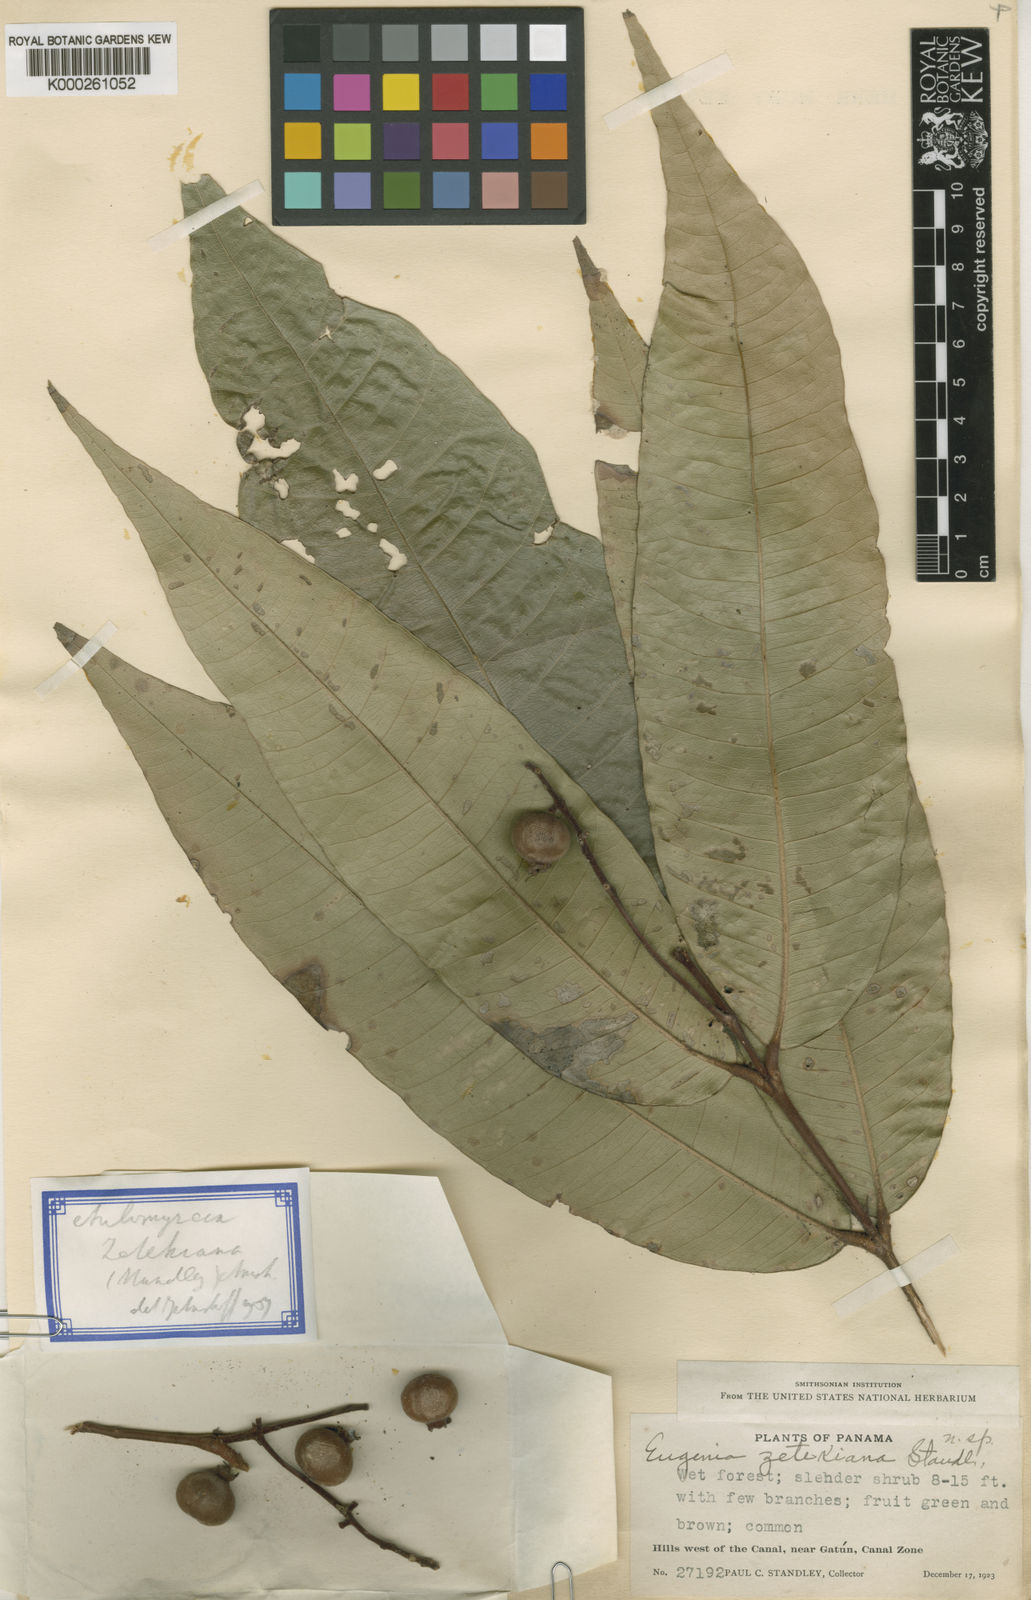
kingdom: Plantae
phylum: Tracheophyta
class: Magnoliopsida
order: Myrtales
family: Myrtaceae
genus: Myrcia
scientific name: Myrcia zetekiana
